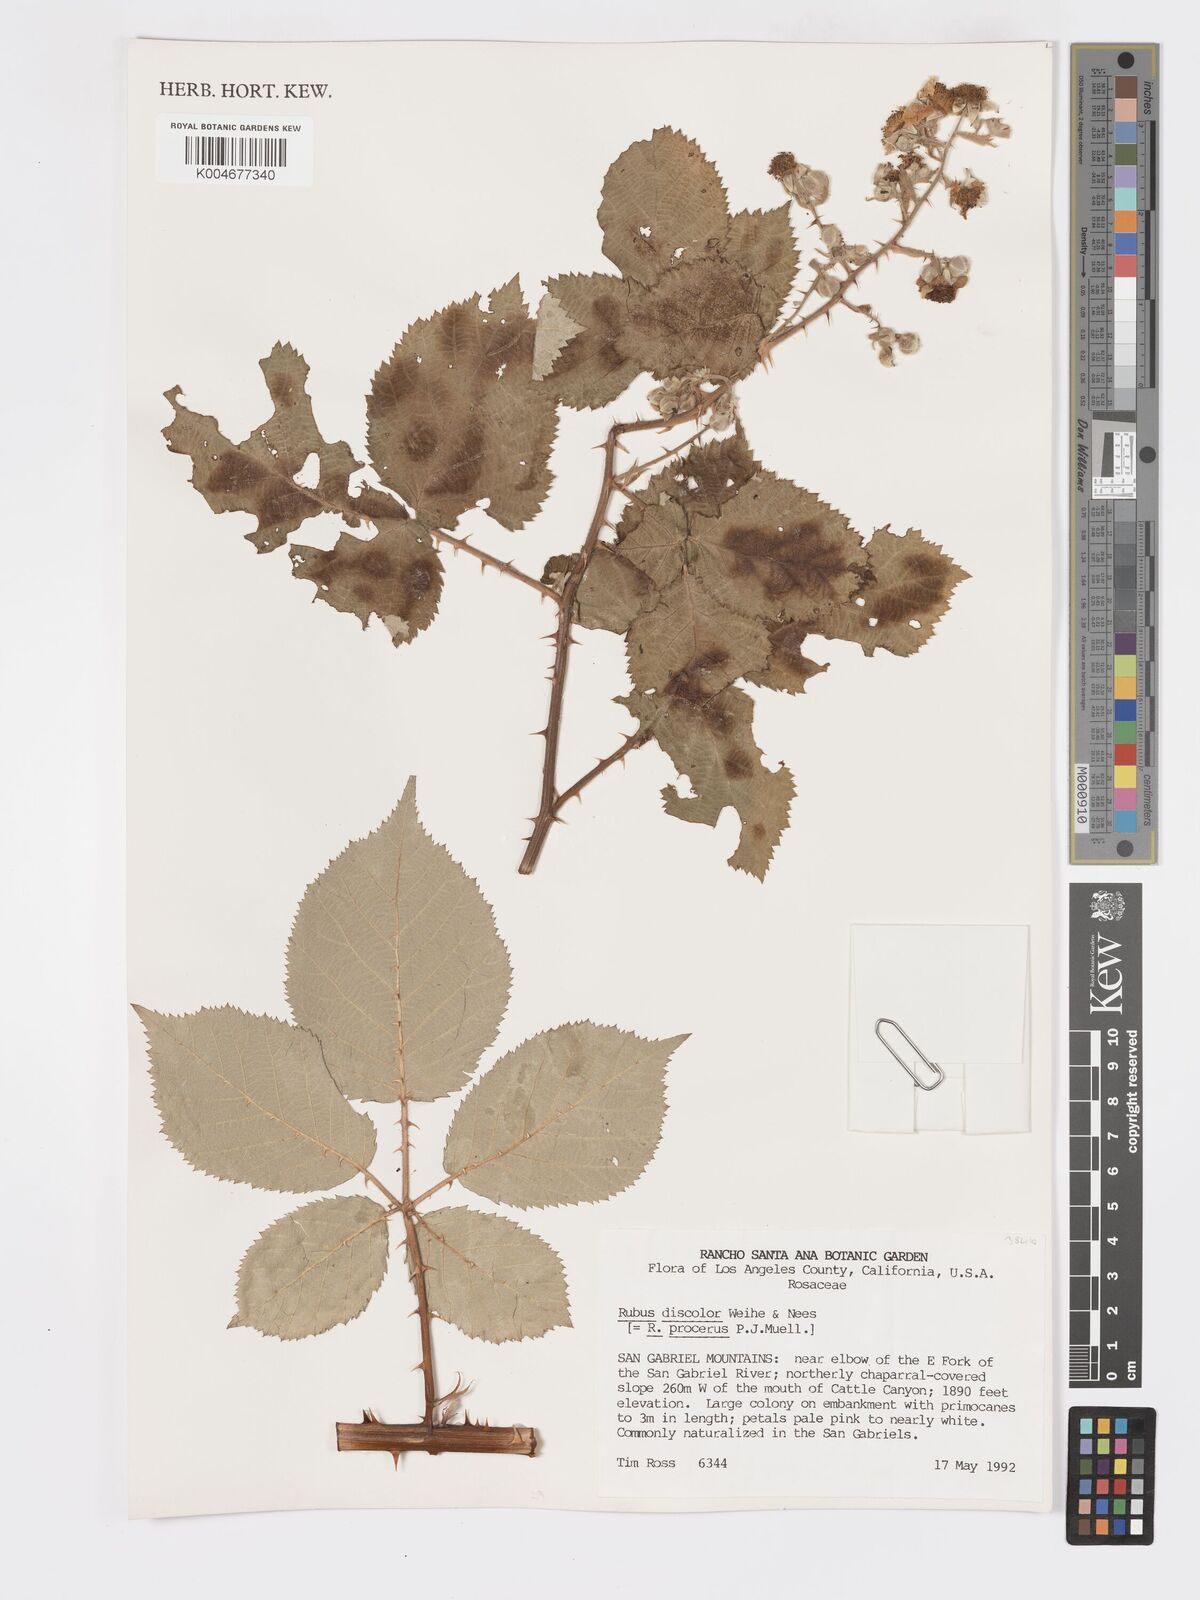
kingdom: Plantae
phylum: Tracheophyta
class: Magnoliopsida
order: Rosales
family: Rosaceae
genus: Rubus
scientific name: Rubus praecox
